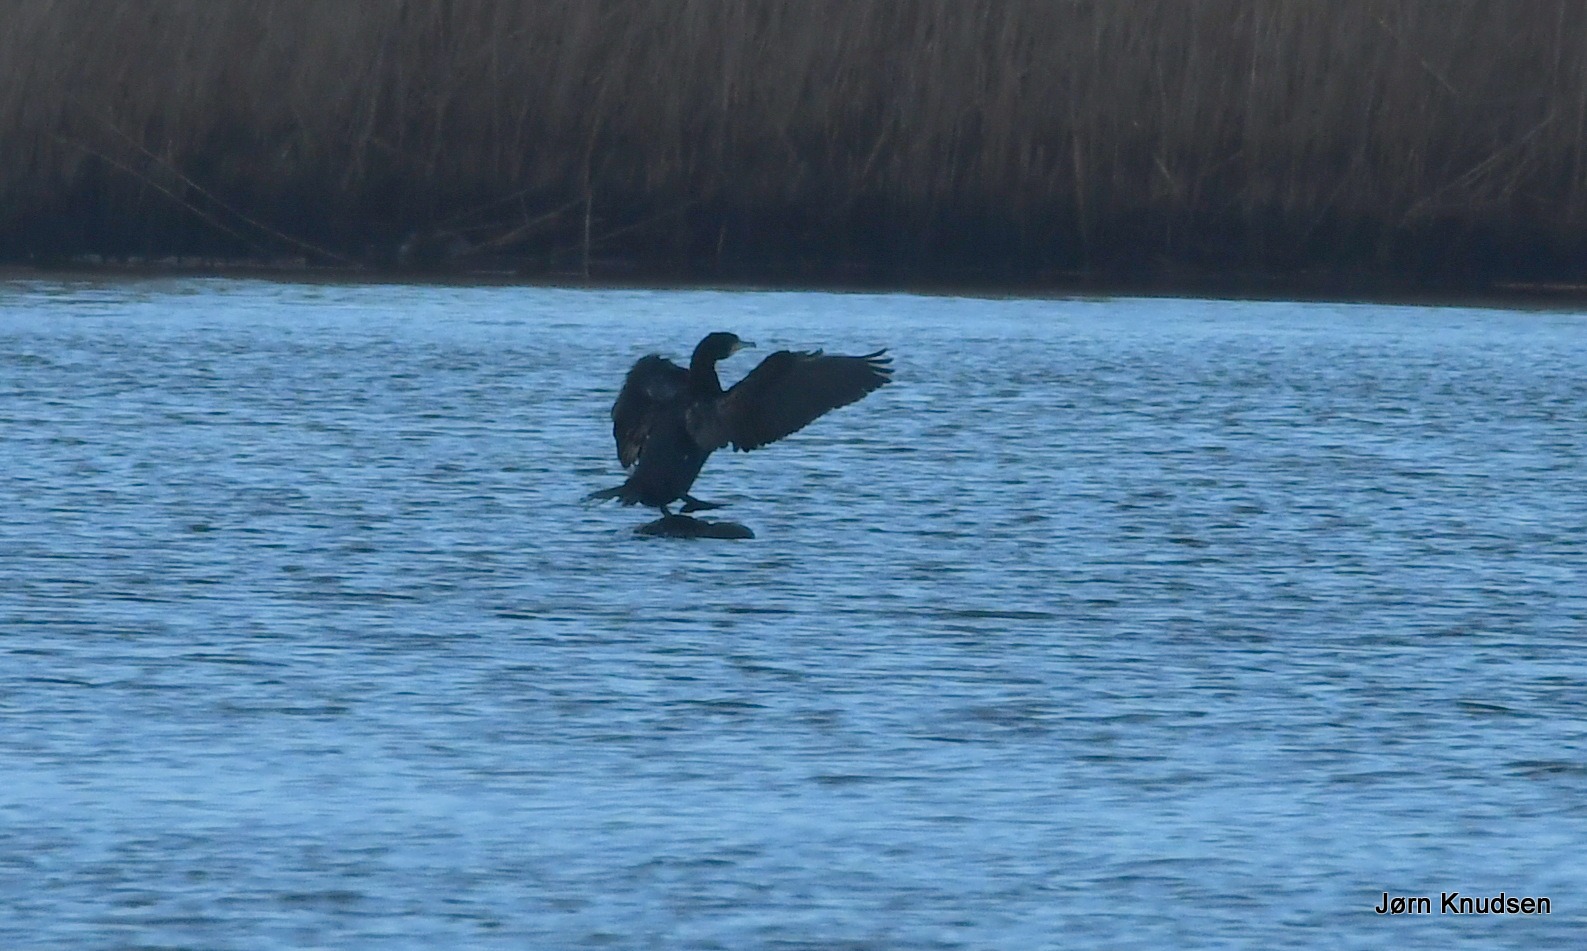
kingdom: Animalia
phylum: Chordata
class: Aves
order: Suliformes
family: Phalacrocoracidae
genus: Phalacrocorax
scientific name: Phalacrocorax carbo
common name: Skarv
